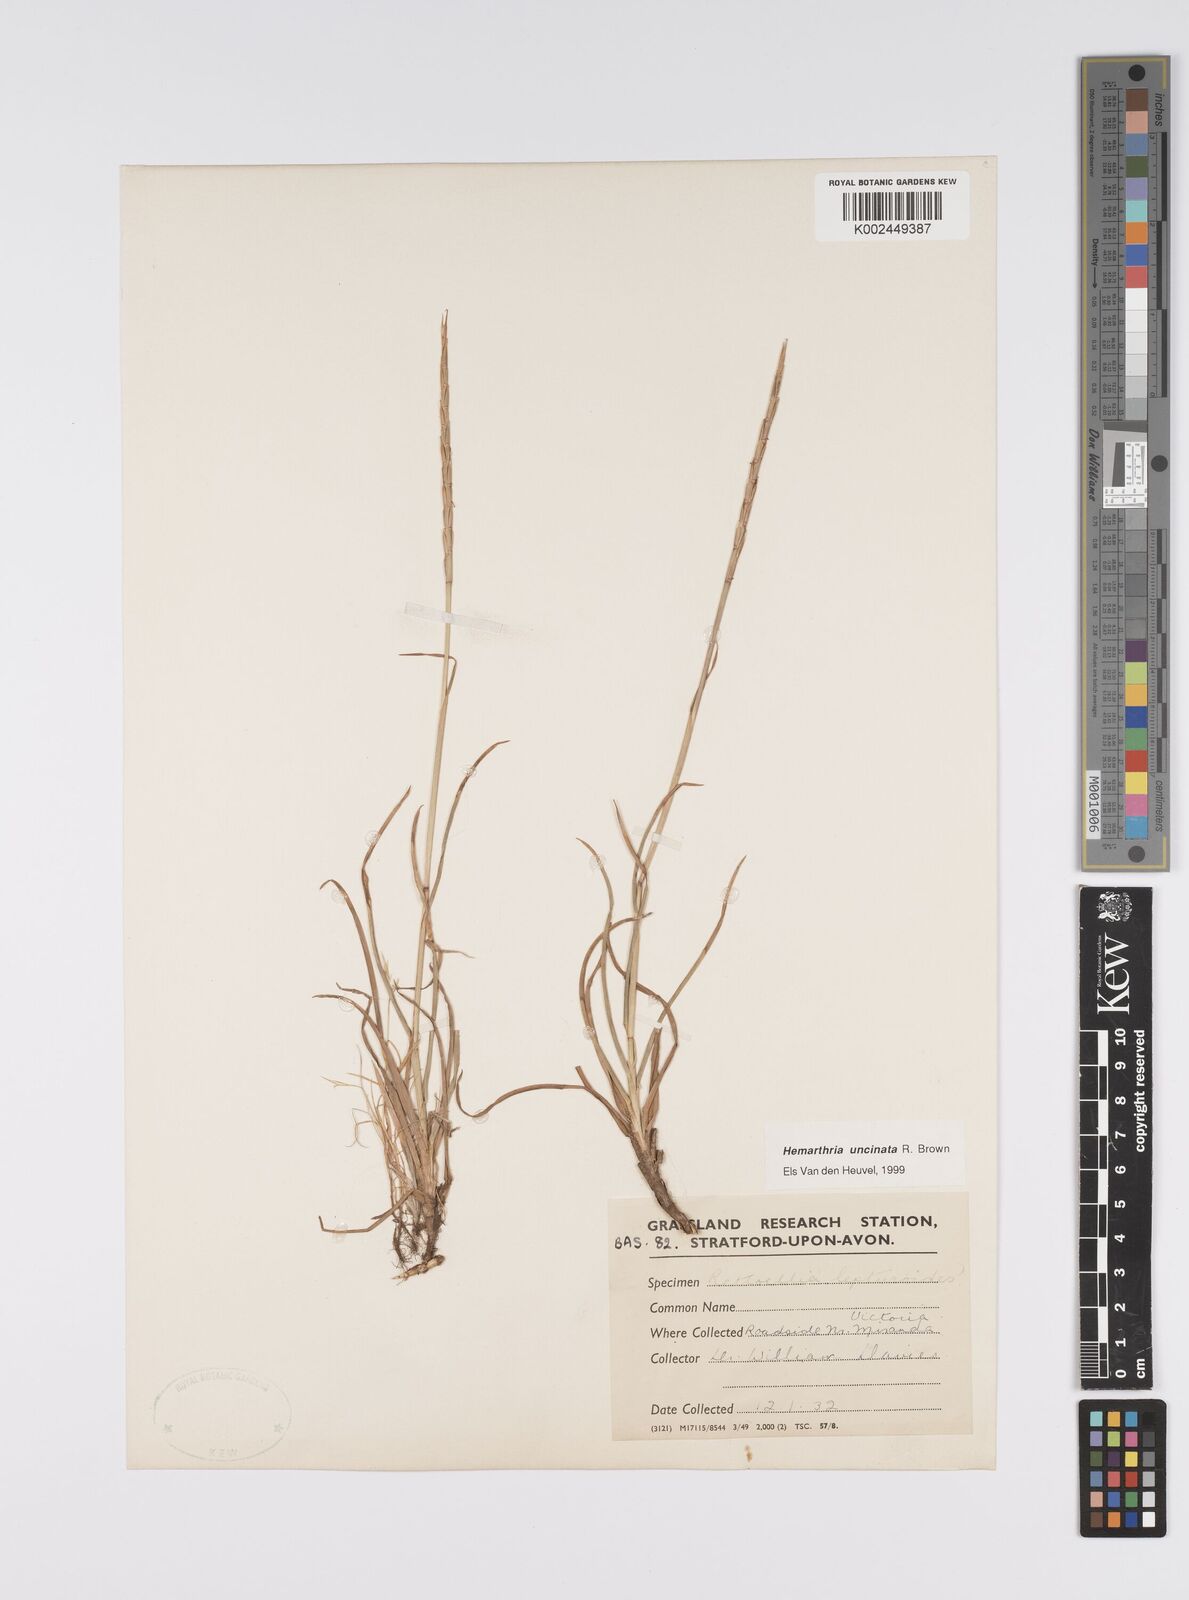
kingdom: Plantae
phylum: Tracheophyta
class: Liliopsida
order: Poales
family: Poaceae
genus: Hemarthria
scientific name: Hemarthria uncinata
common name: Matgrass
